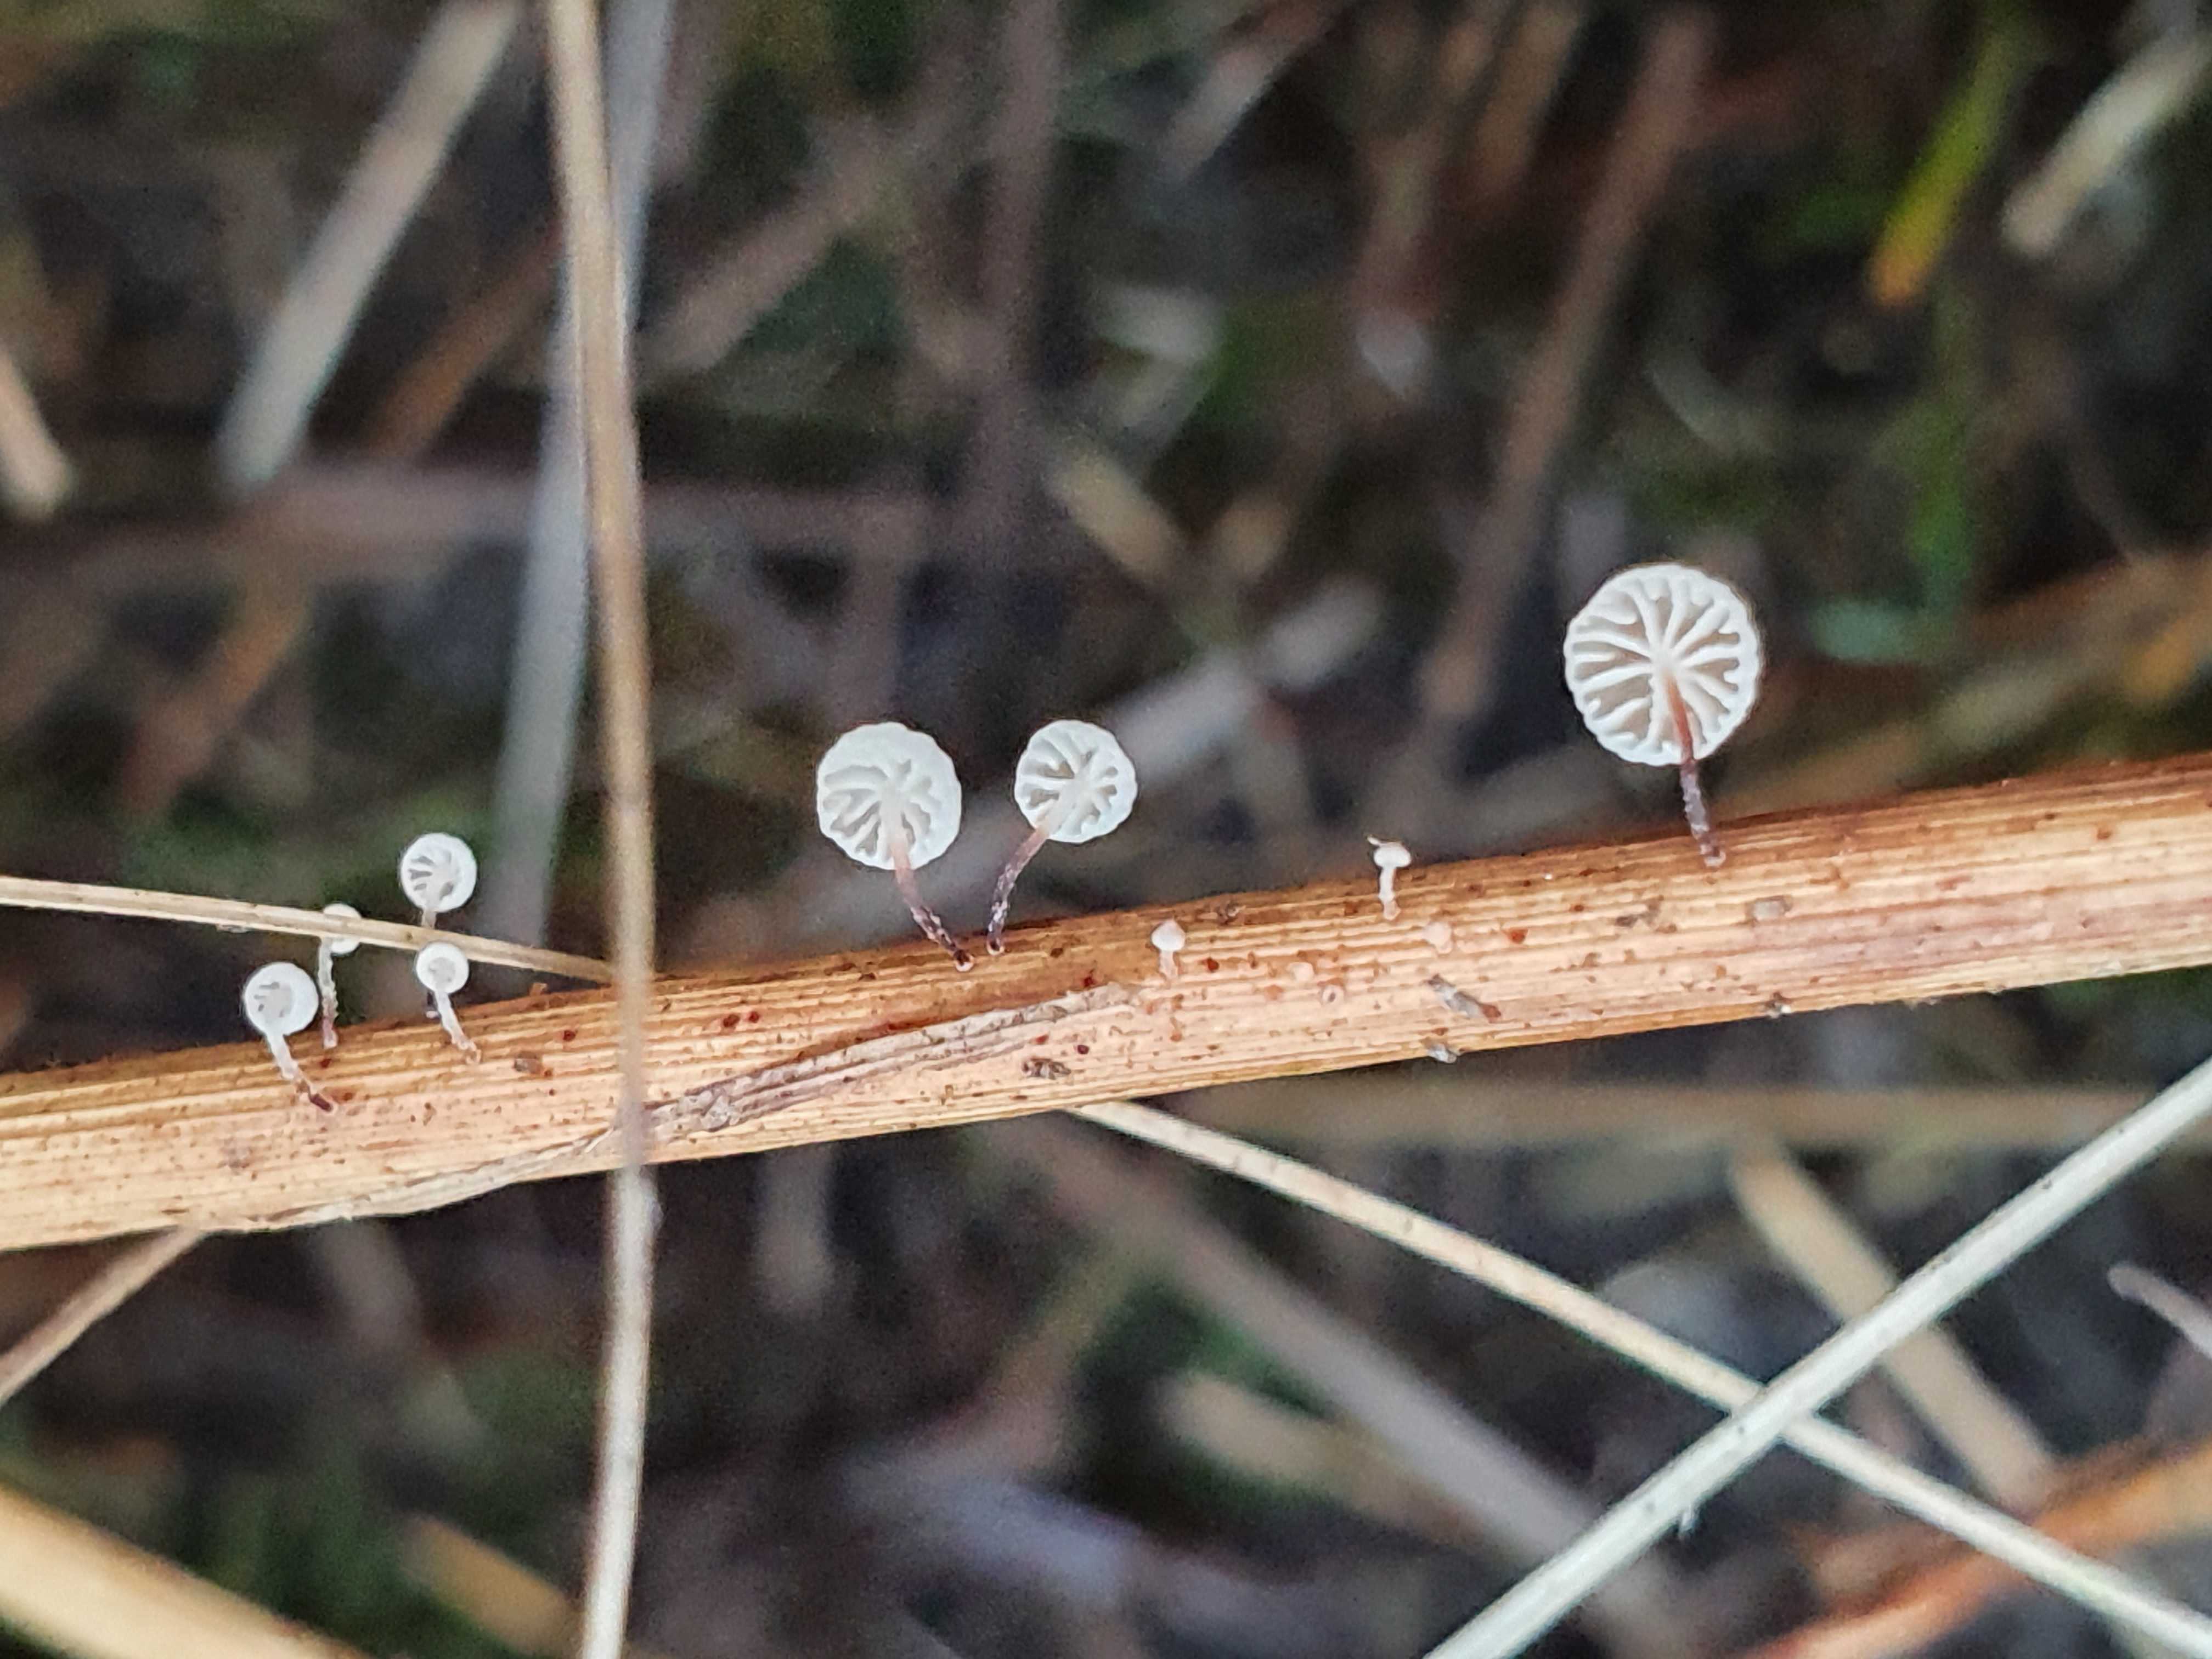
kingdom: Fungi
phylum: Basidiomycota
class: Agaricomycetes
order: Agaricales
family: Omphalotaceae
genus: Marasmiellus
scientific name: Marasmiellus humillimus
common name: liden bruskhat
